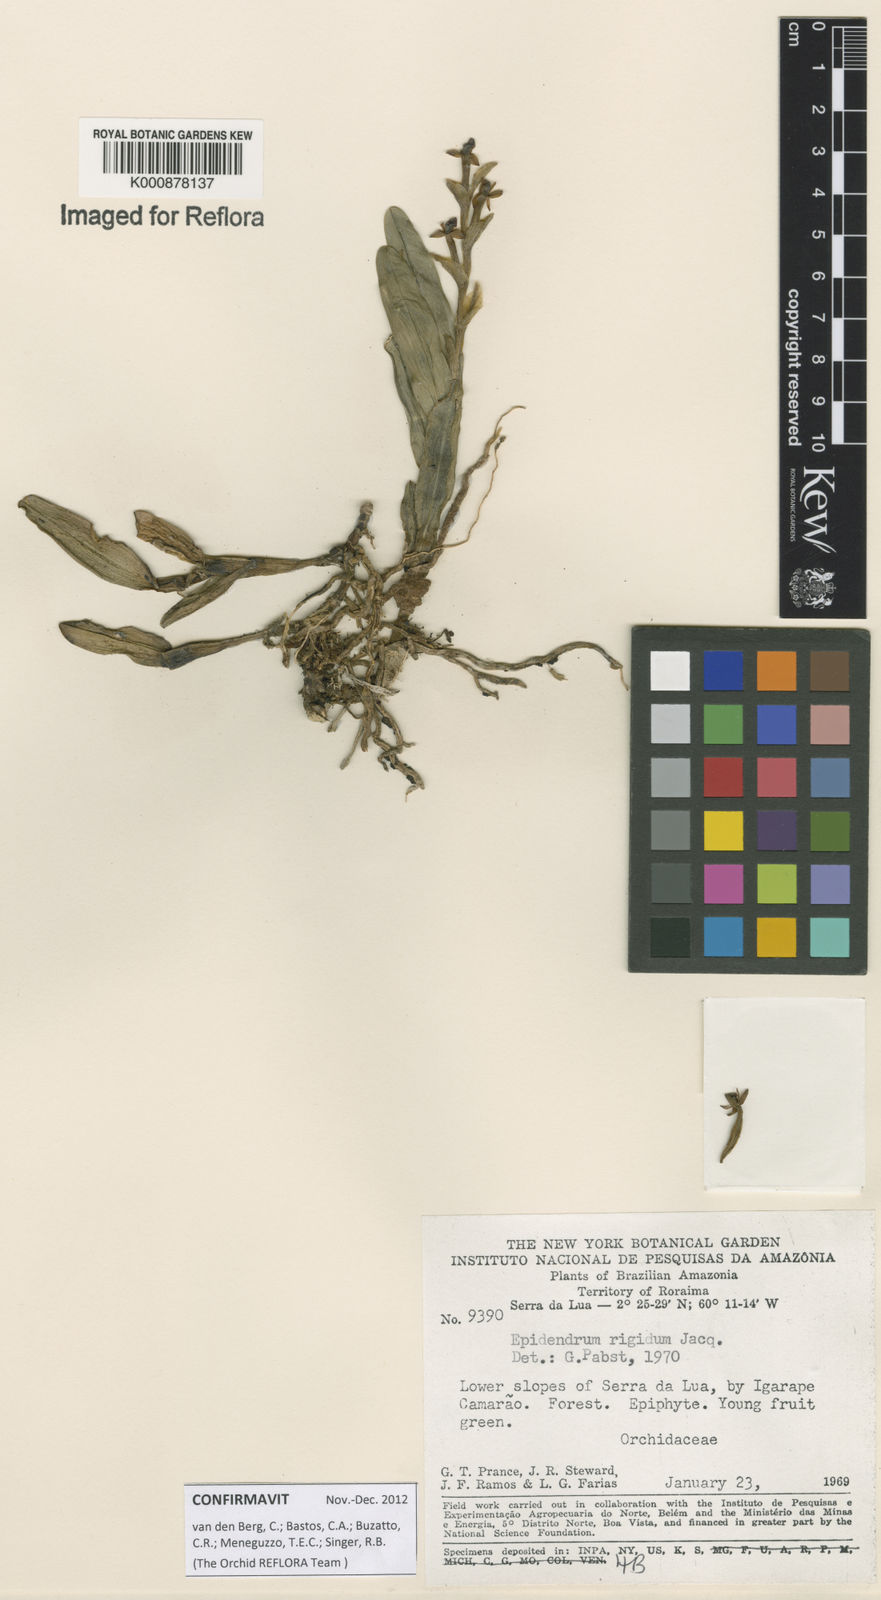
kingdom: Plantae
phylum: Tracheophyta
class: Liliopsida
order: Asparagales
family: Orchidaceae
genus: Epidendrum
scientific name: Epidendrum rigidum
